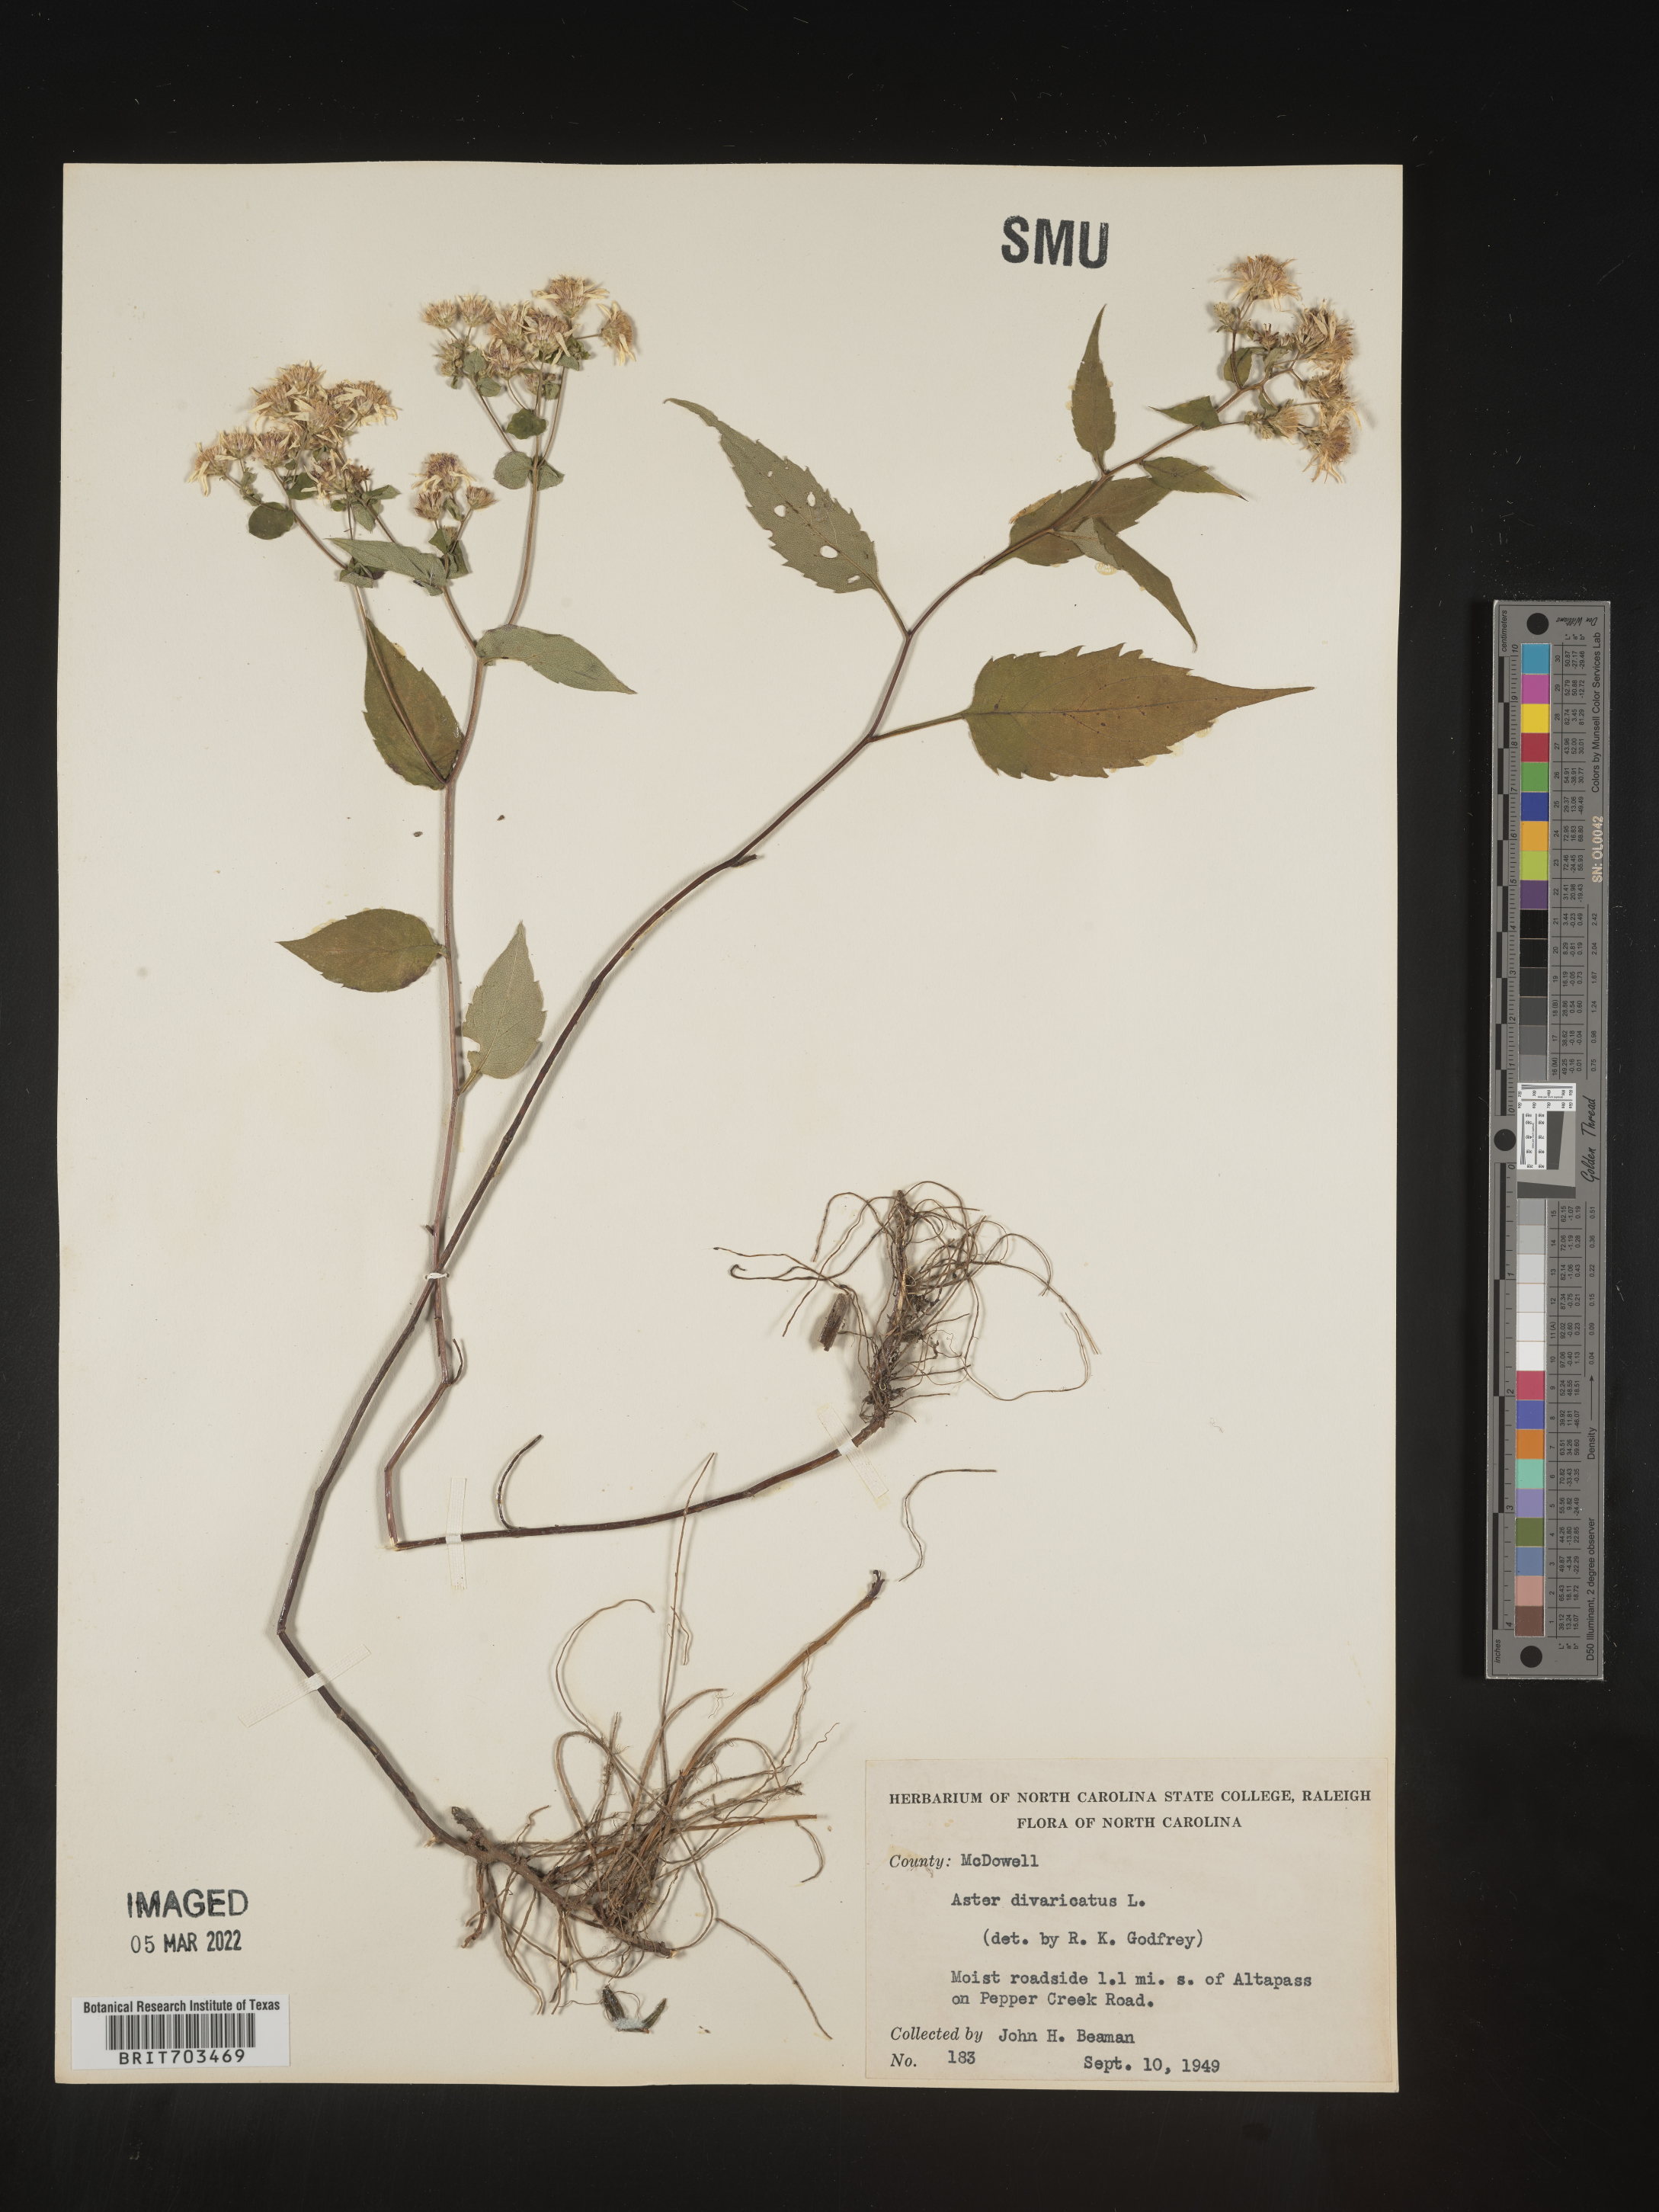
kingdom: Plantae
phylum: Tracheophyta
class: Magnoliopsida
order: Asterales
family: Asteraceae
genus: Eurybia
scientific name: Eurybia divaricata
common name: White wood aster
